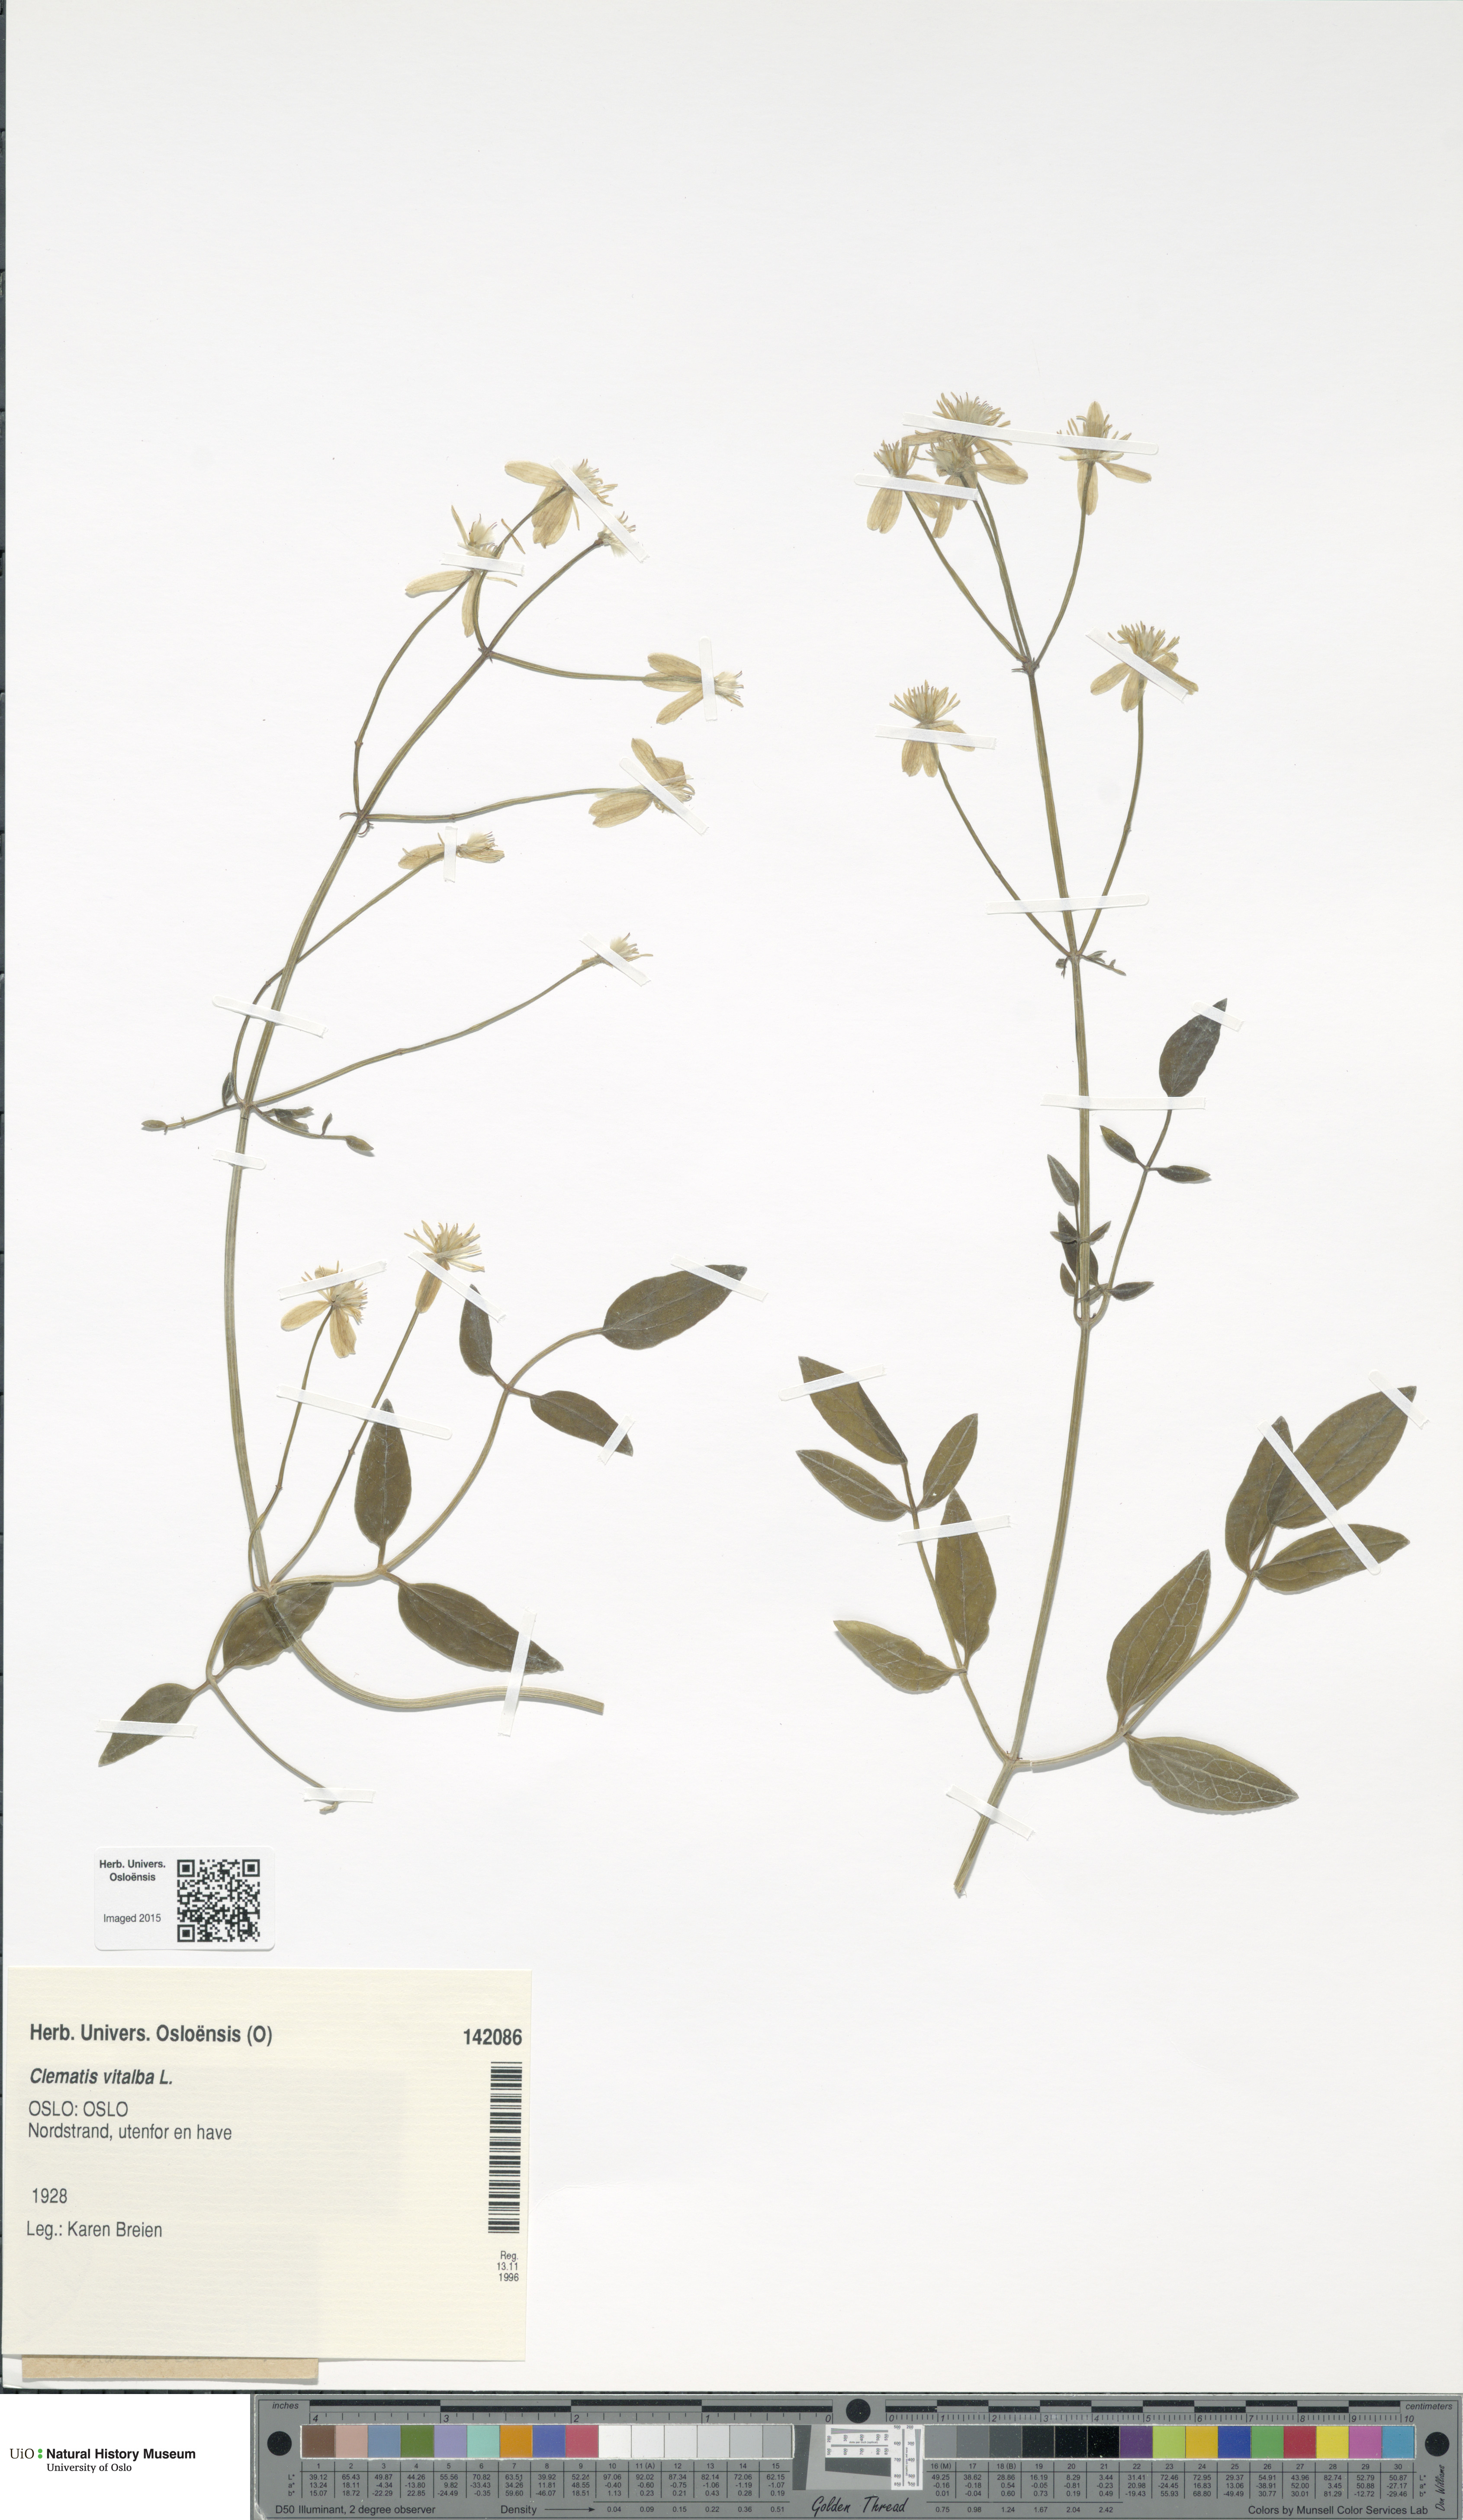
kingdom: Plantae
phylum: Tracheophyta
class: Magnoliopsida
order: Ranunculales
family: Ranunculaceae
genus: Clematis
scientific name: Clematis vitalba
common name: Evergreen clematis
